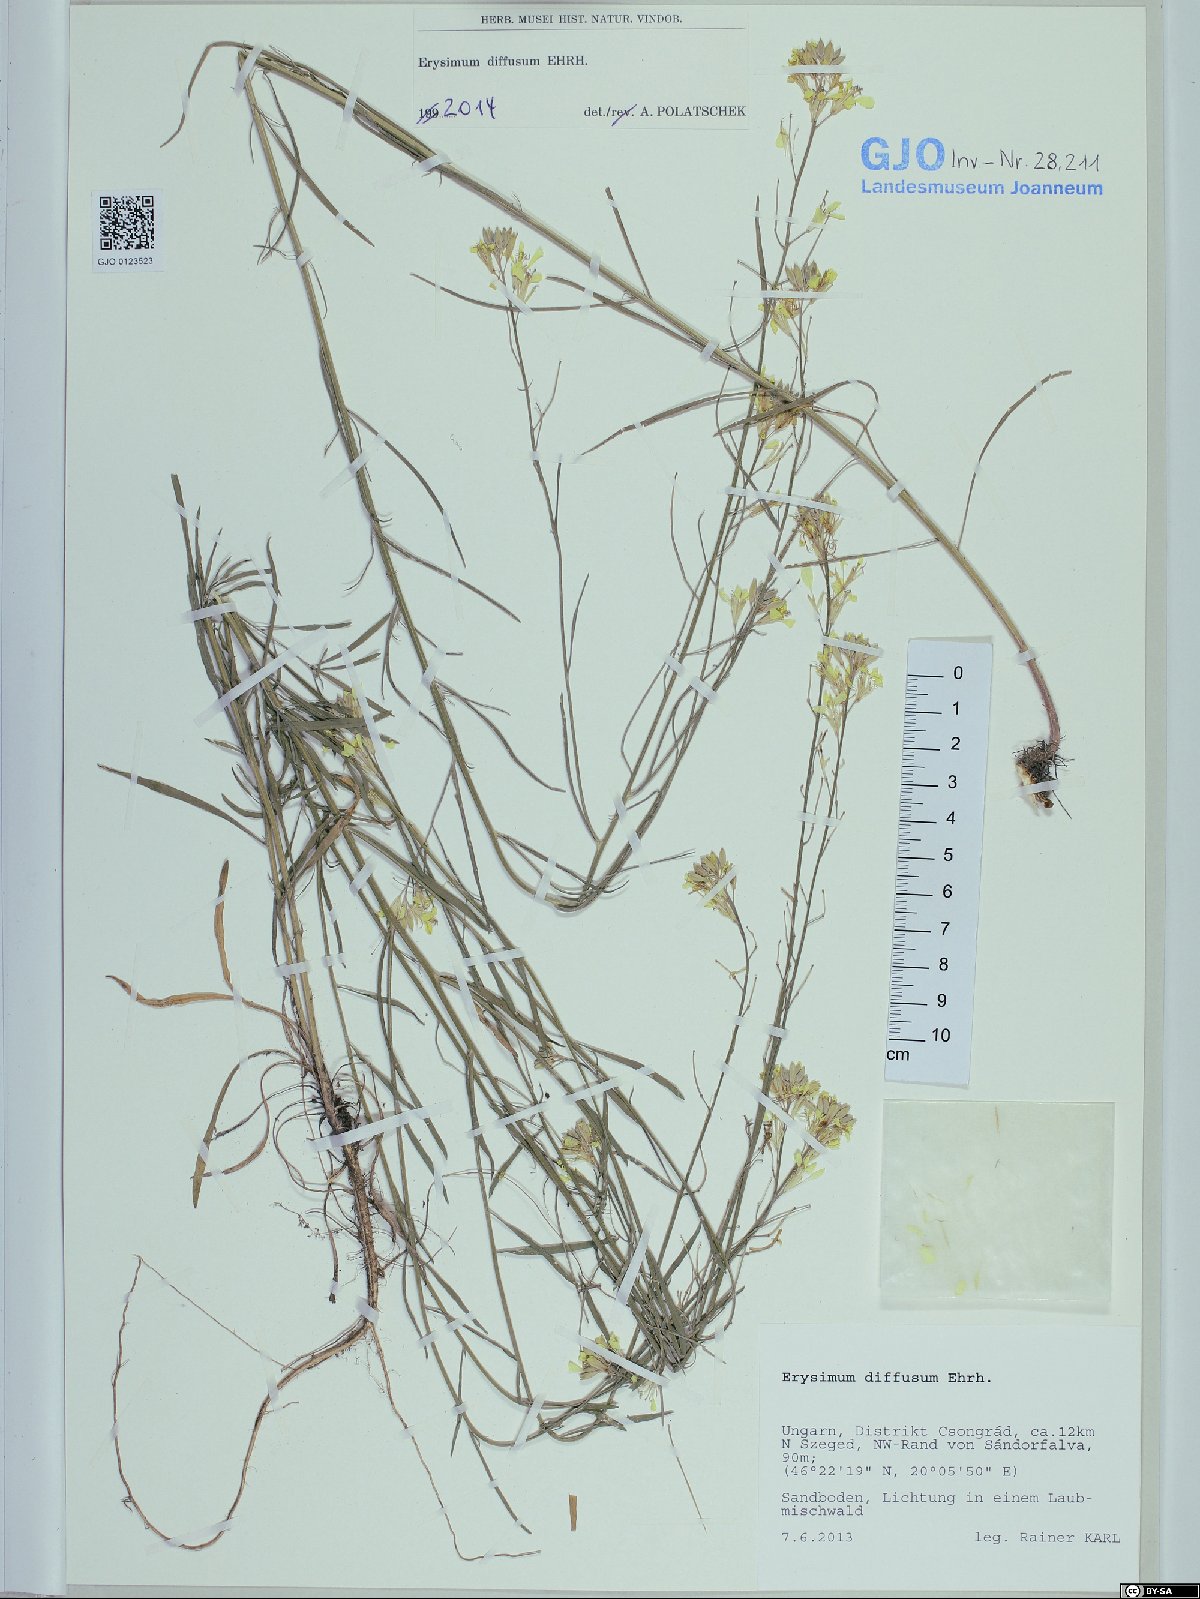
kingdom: Plantae
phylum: Tracheophyta
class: Magnoliopsida
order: Brassicales
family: Brassicaceae
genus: Erysimum
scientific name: Erysimum diffusum
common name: Diffuse wallflower
